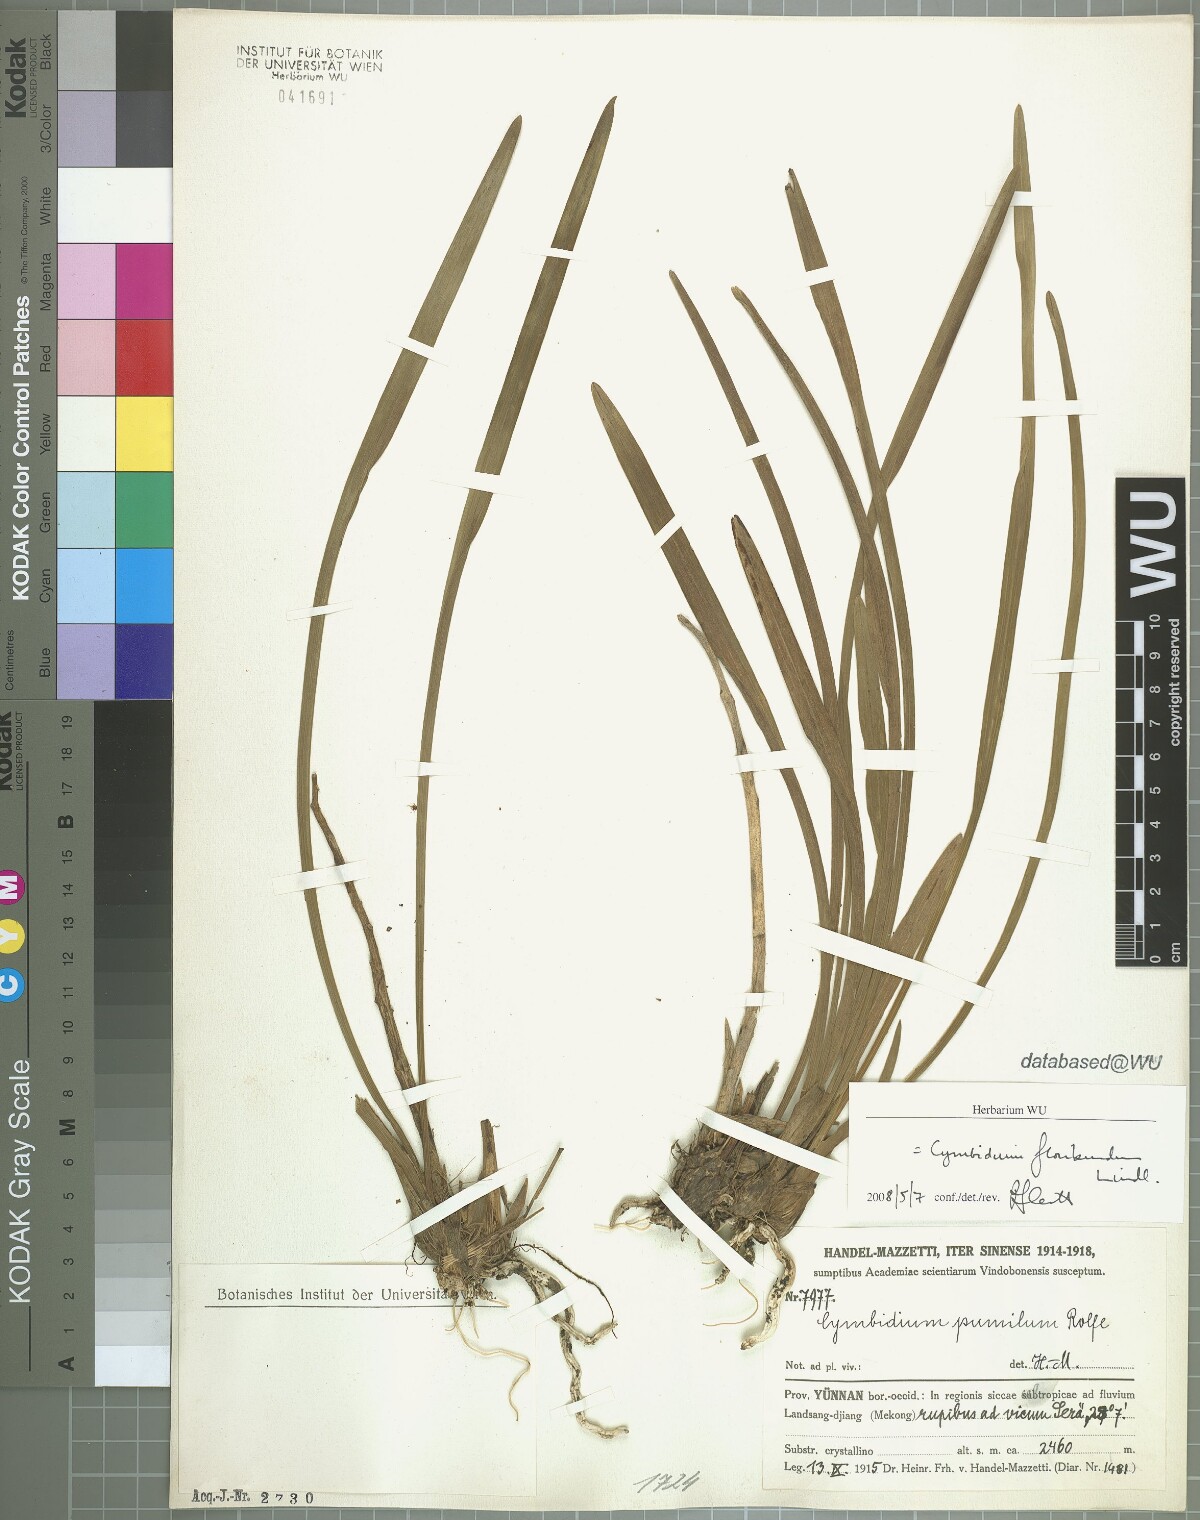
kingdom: Plantae
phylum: Tracheophyta
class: Liliopsida
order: Asparagales
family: Orchidaceae
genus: Cymbidium
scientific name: Cymbidium floribundum
